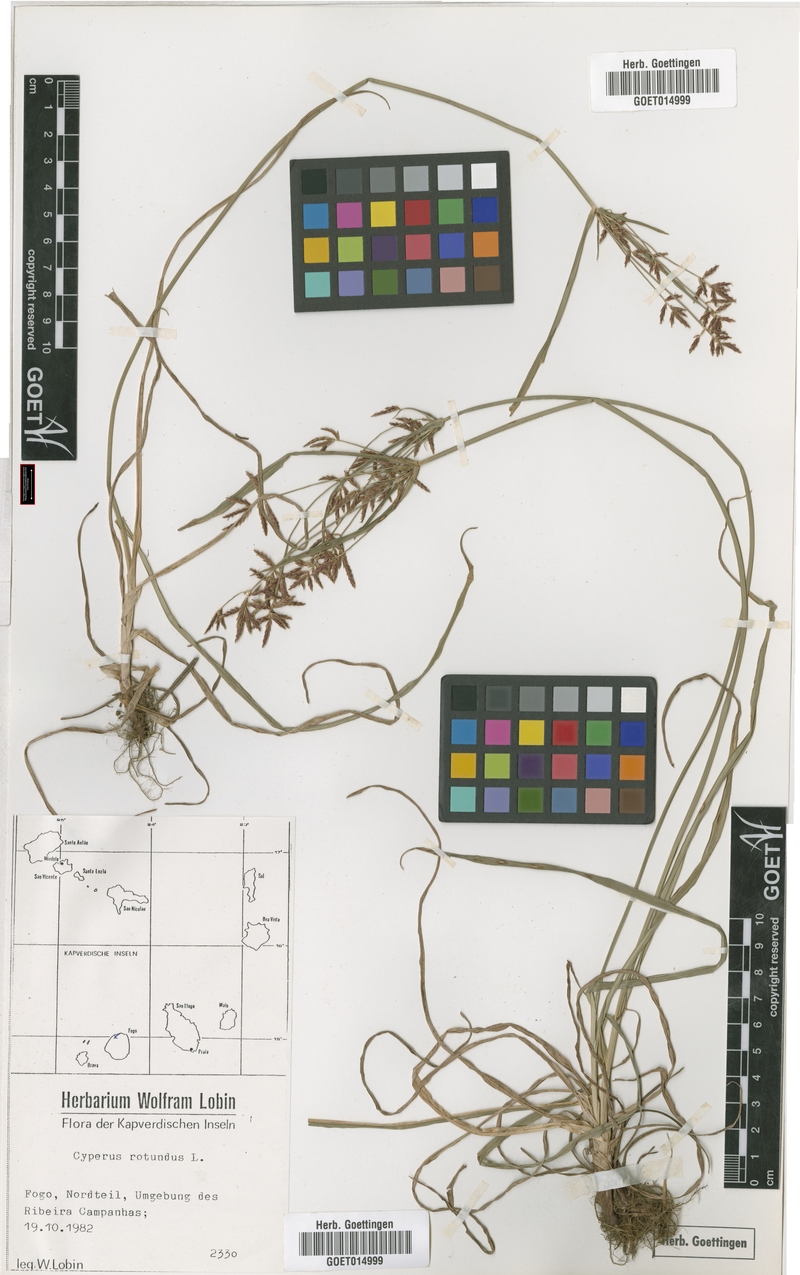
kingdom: Plantae
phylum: Tracheophyta
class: Liliopsida
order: Poales
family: Cyperaceae
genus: Cyperus
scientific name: Cyperus rotundus
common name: Nutgrass
